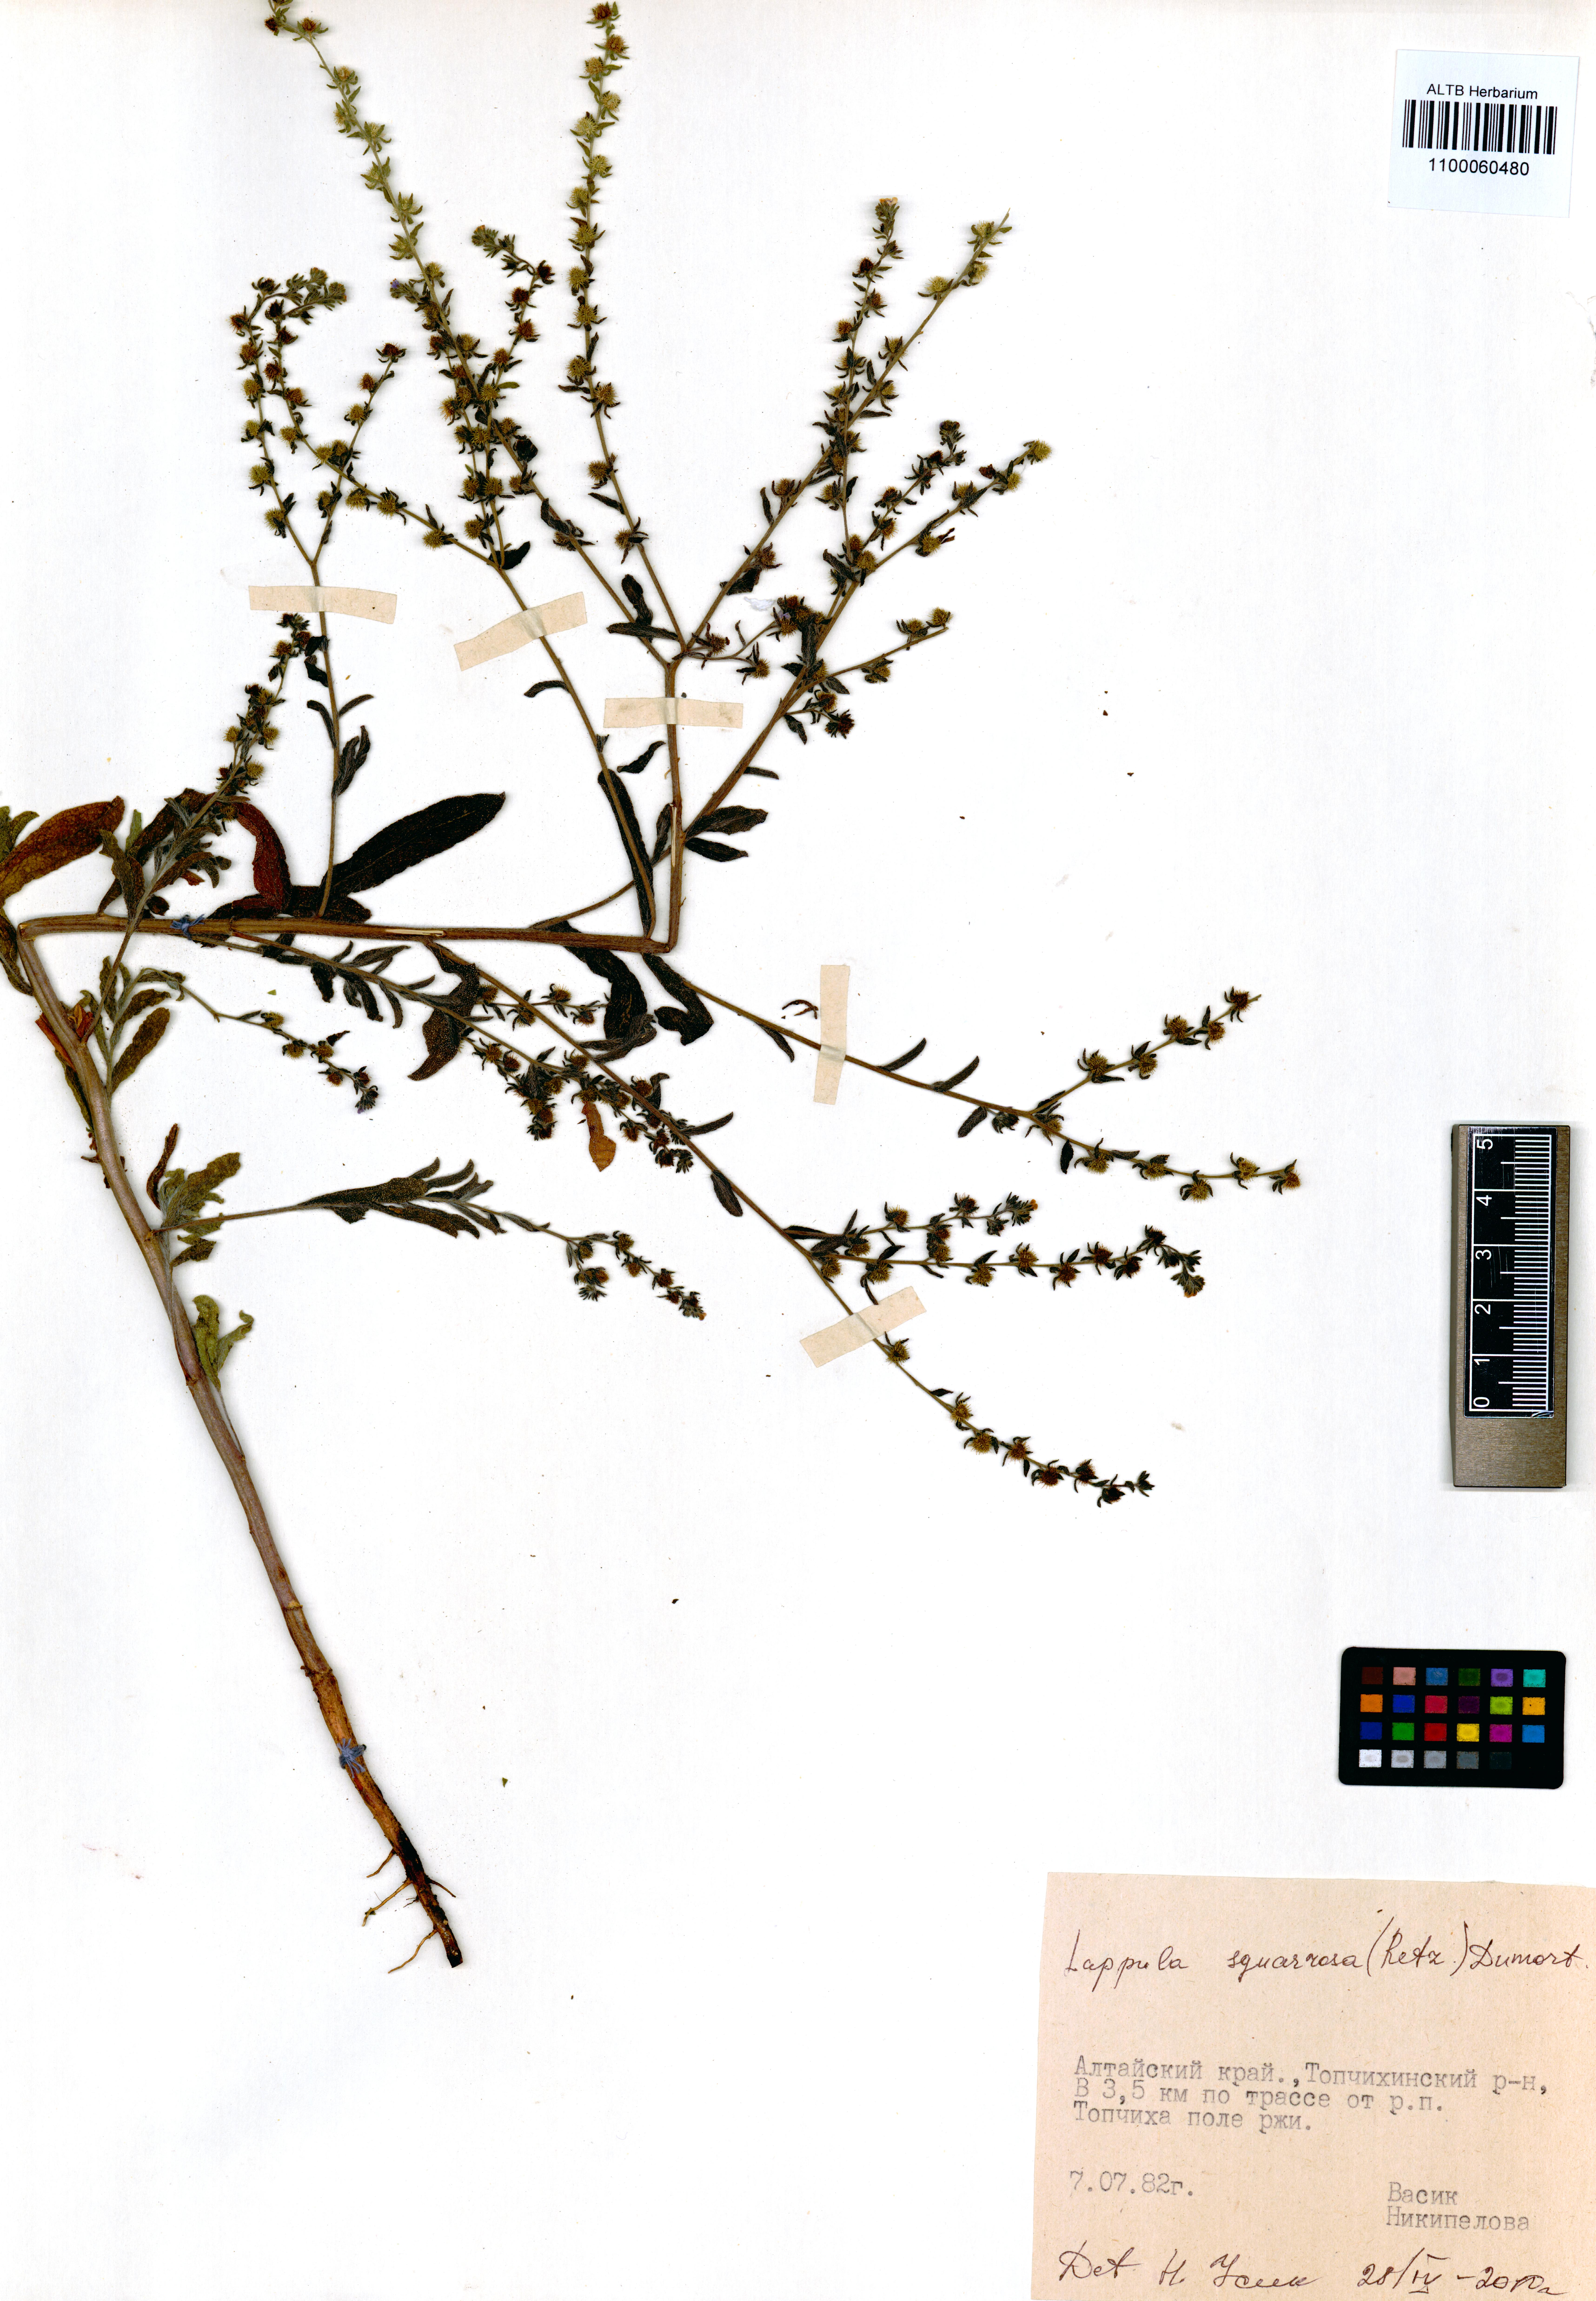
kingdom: Plantae
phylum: Tracheophyta
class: Magnoliopsida
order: Boraginales
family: Boraginaceae
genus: Lappula
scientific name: Lappula squarrosa
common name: European stickseed
